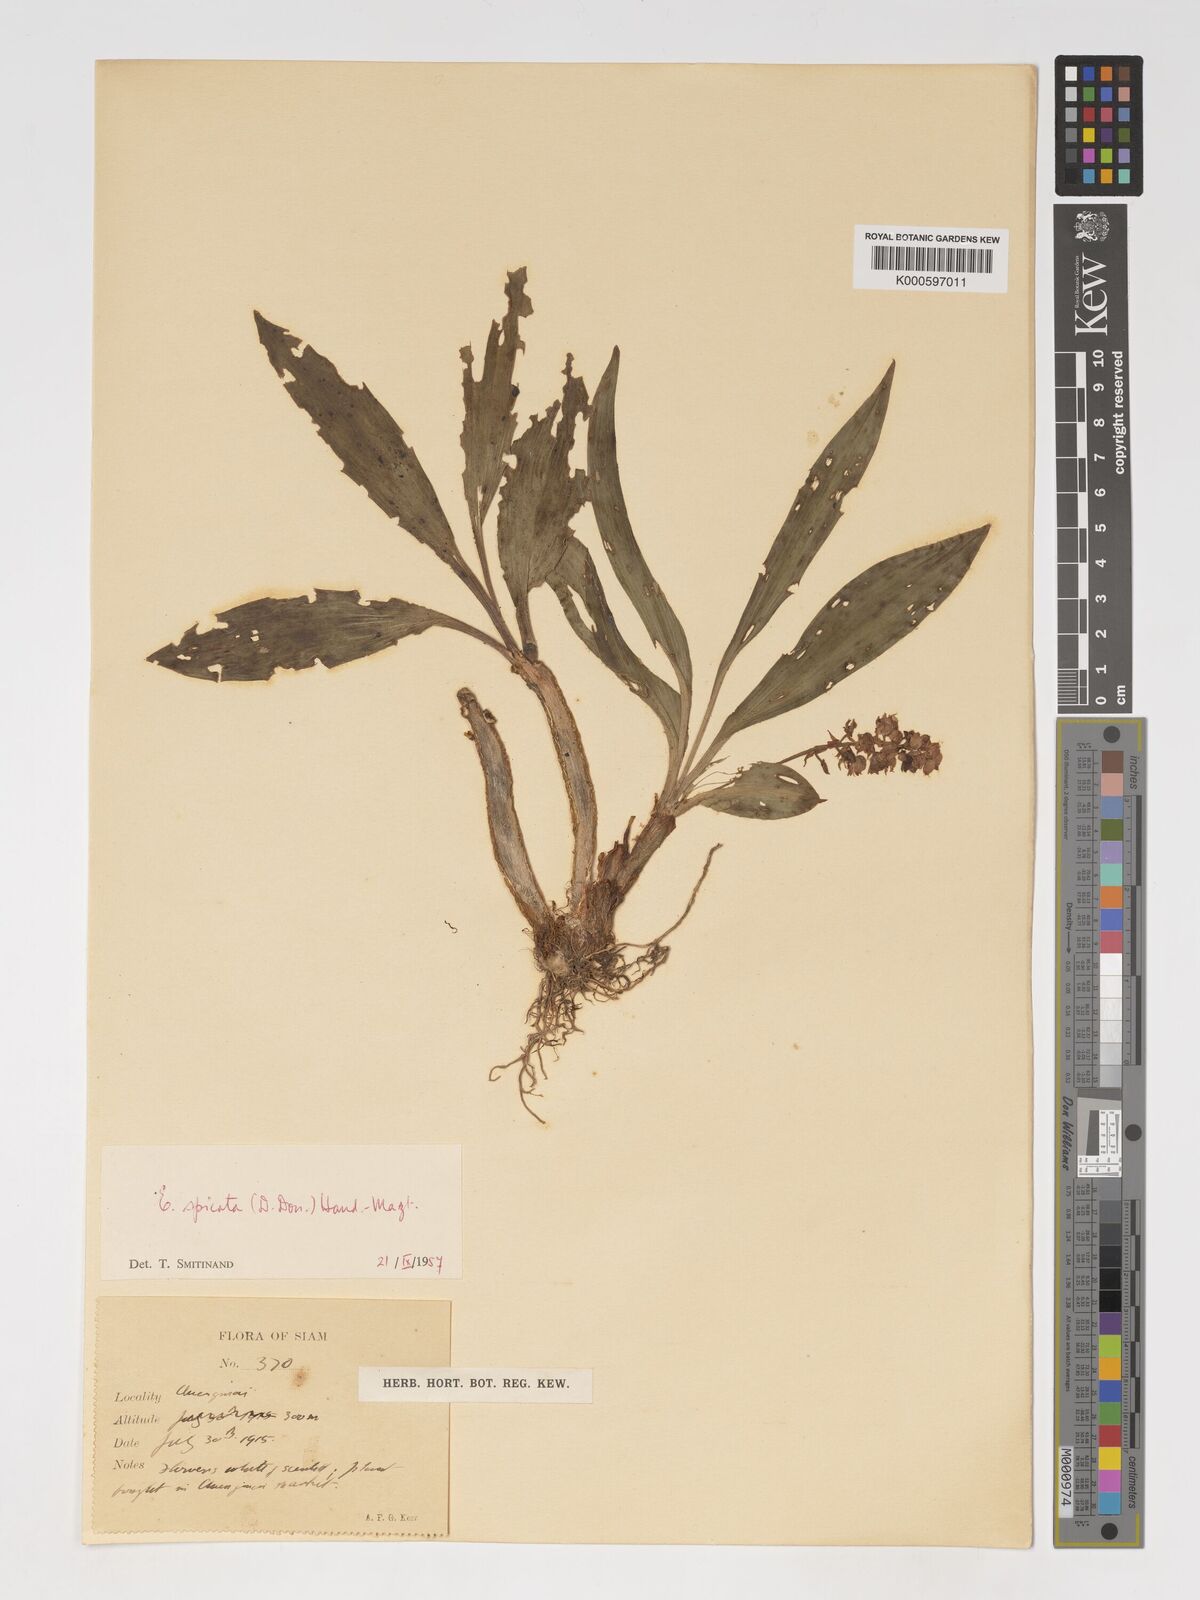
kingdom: Plantae
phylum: Tracheophyta
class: Liliopsida
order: Asparagales
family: Orchidaceae
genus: Pinalia
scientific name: Pinalia spicata
